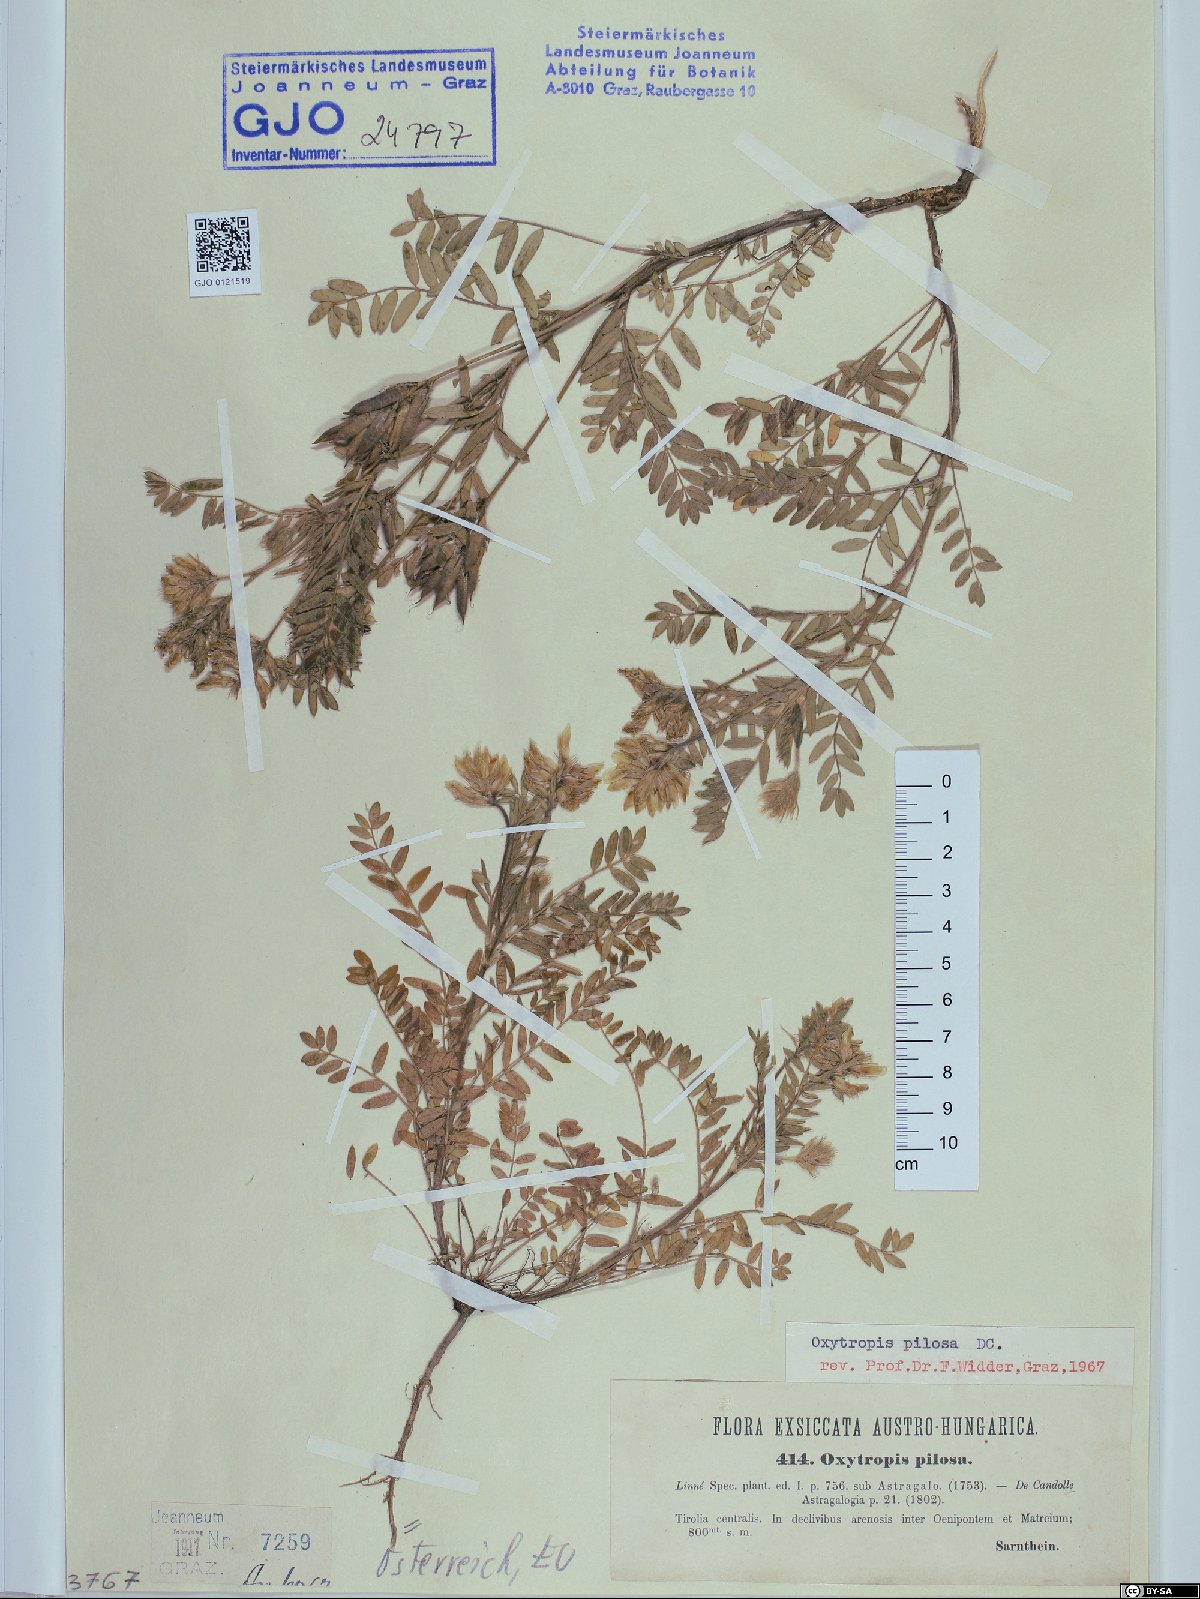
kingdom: Plantae
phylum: Tracheophyta
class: Magnoliopsida
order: Fabales
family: Fabaceae
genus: Oxytropis
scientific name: Oxytropis pilosa
